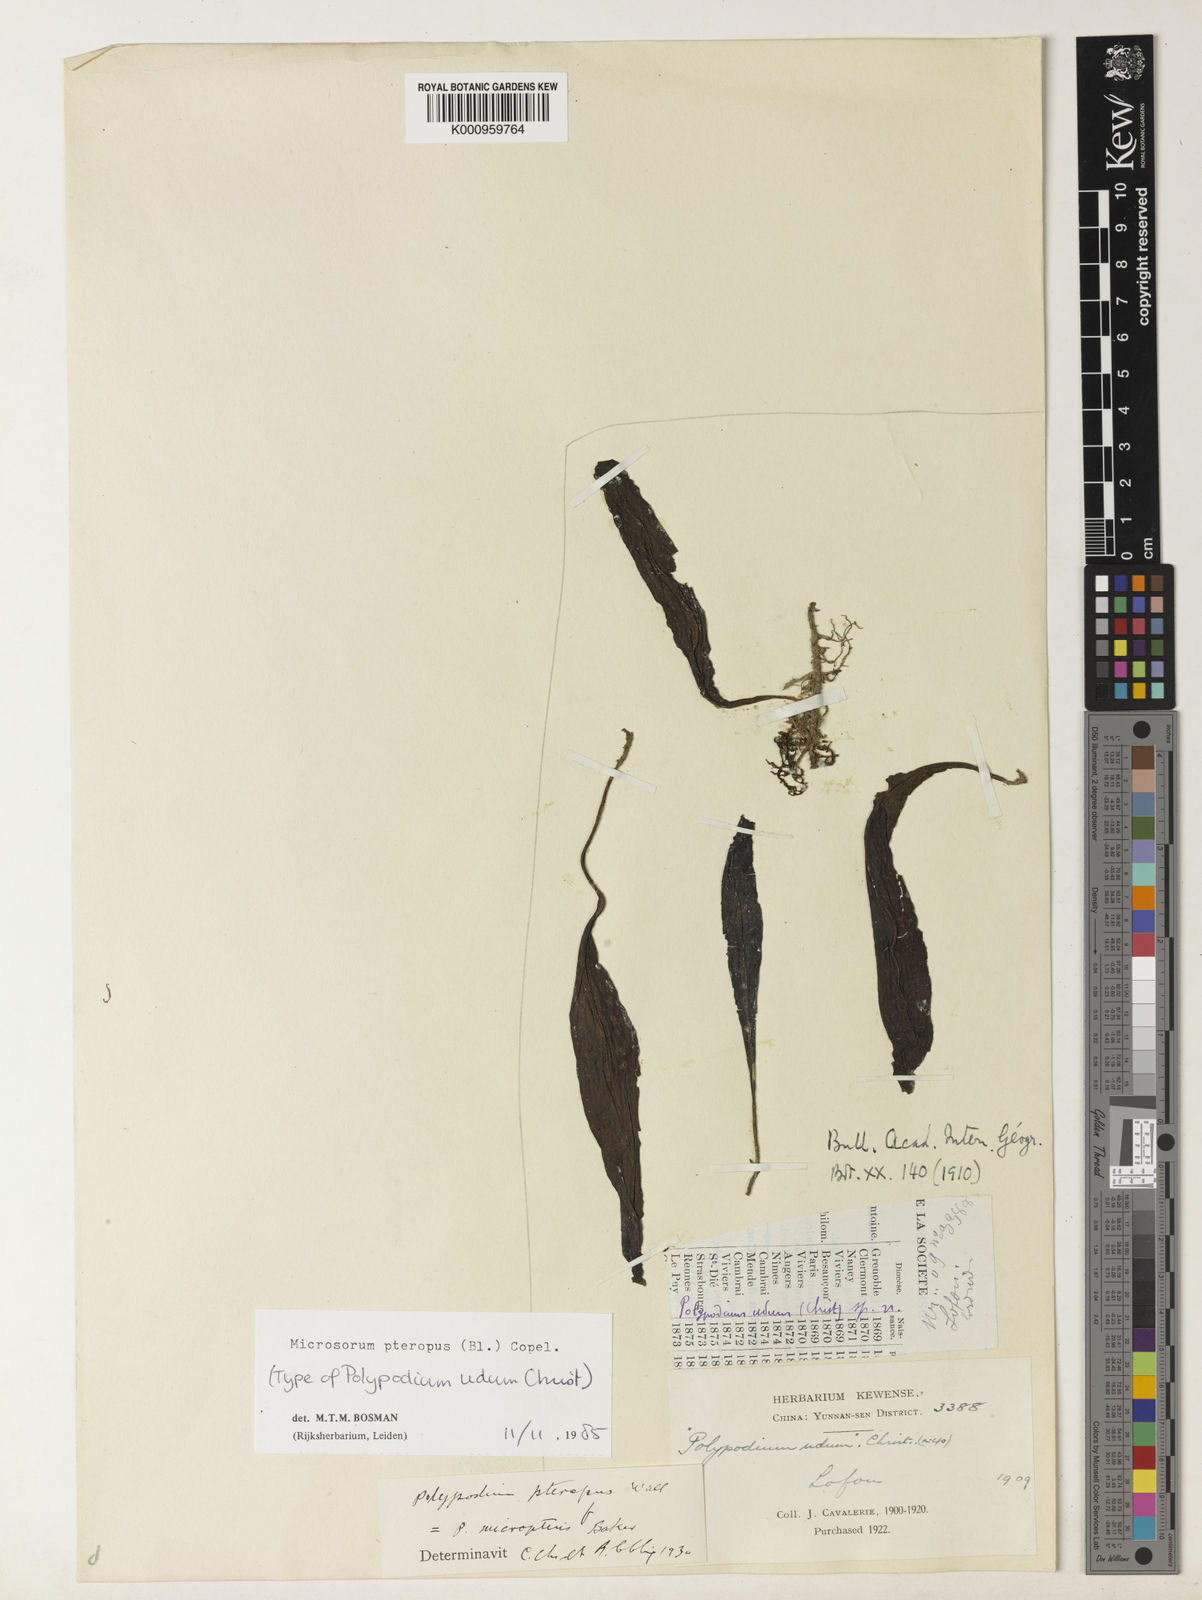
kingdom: Plantae
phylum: Tracheophyta
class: Polypodiopsida
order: Polypodiales
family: Polypodiaceae
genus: Leptochilus
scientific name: Leptochilus pteropus
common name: Java fern
